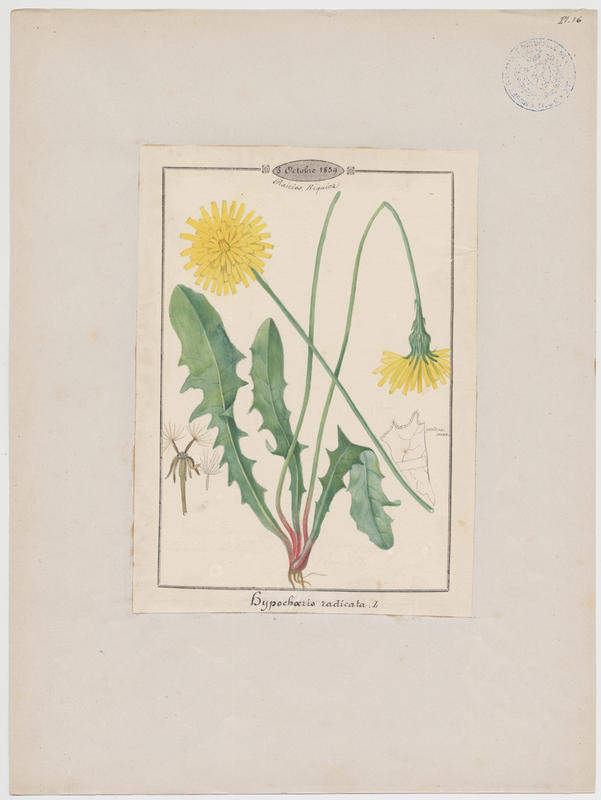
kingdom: Plantae
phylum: Tracheophyta
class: Magnoliopsida
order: Asterales
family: Asteraceae
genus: Hypochoeris
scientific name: Hypochoeris radicata
